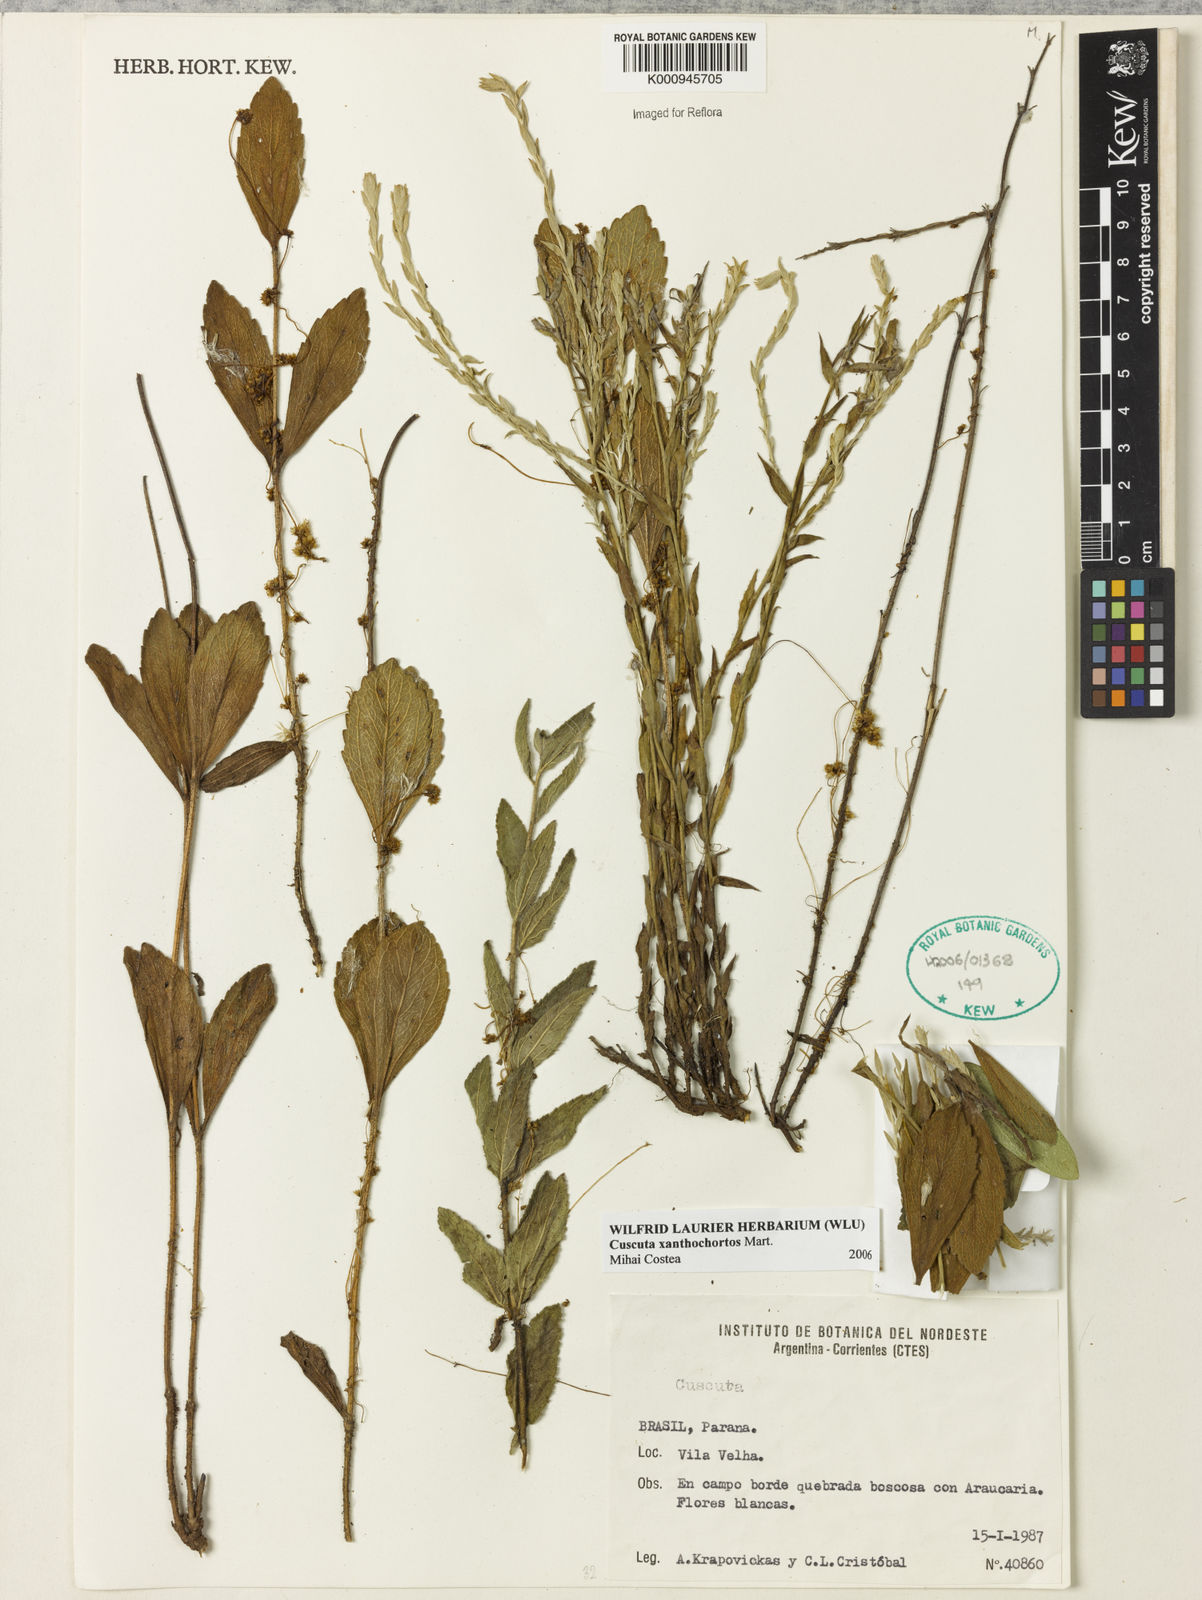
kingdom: Plantae
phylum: Tracheophyta
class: Magnoliopsida
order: Solanales
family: Convolvulaceae
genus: Cuscuta
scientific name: Cuscuta
